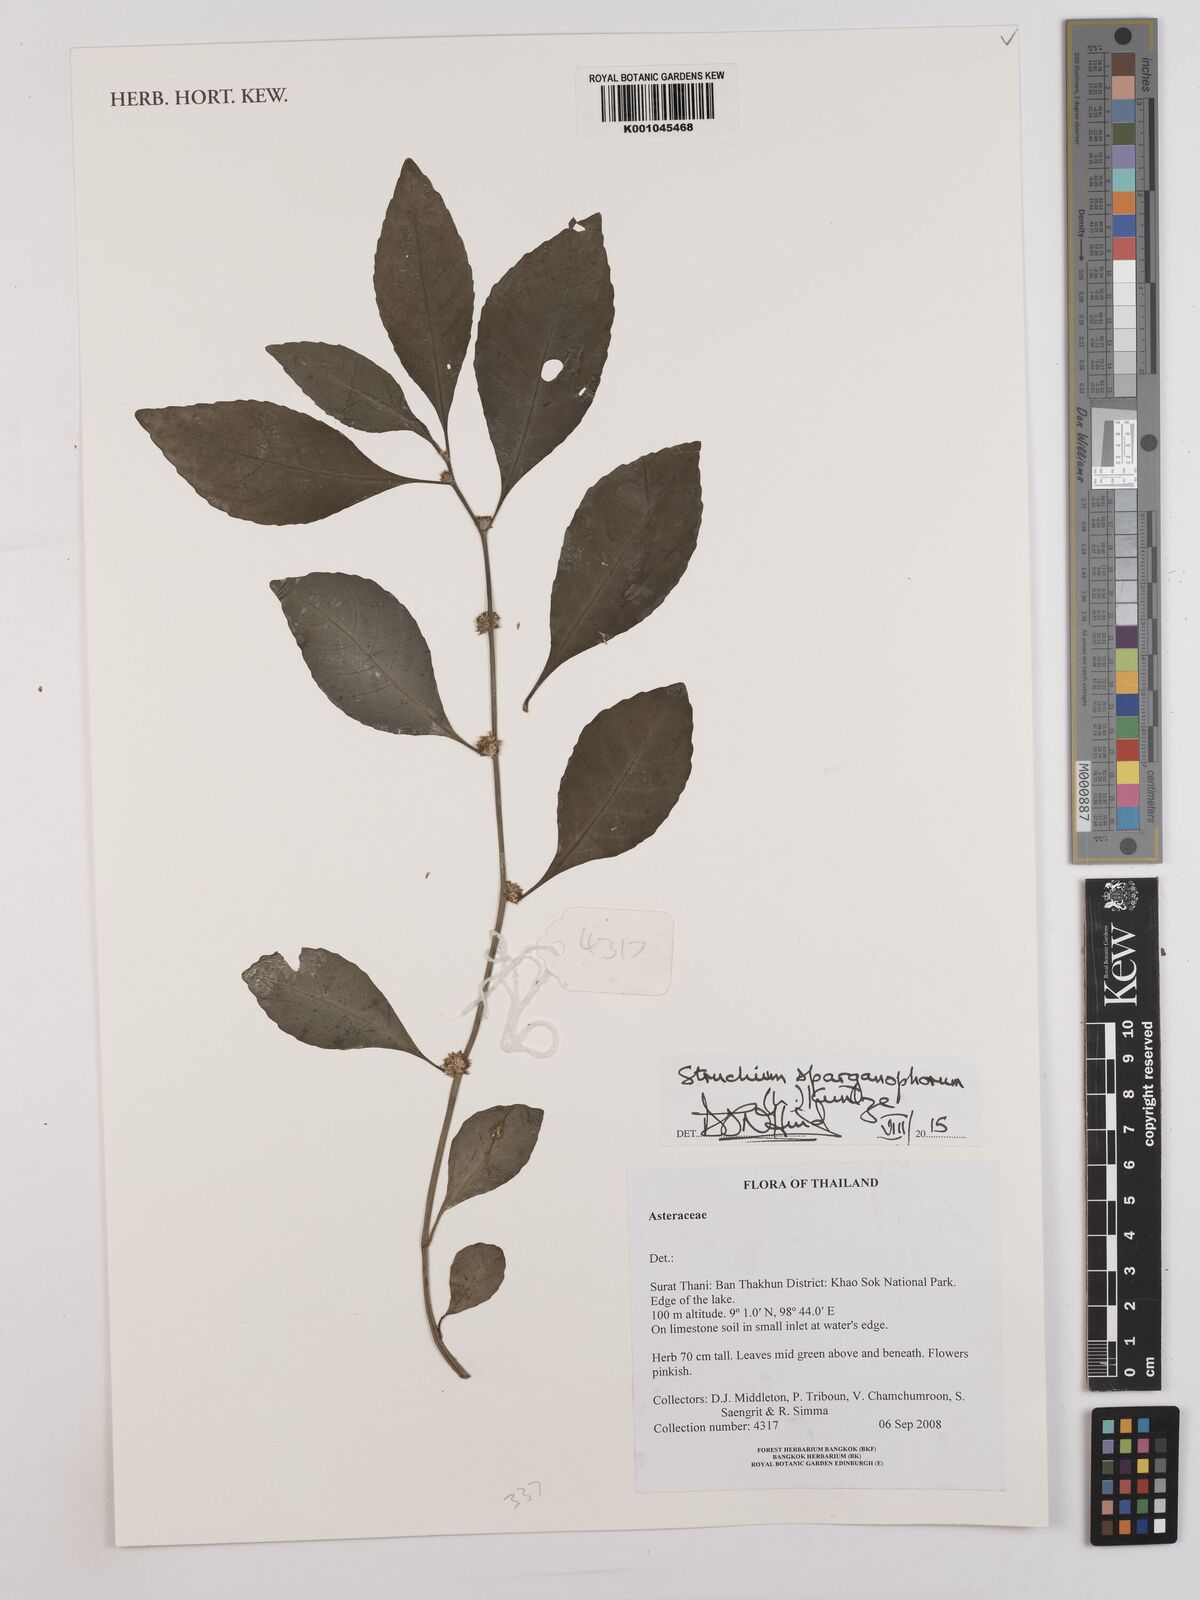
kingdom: Plantae
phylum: Tracheophyta
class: Magnoliopsida
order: Asterales
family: Asteraceae
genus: Struchium
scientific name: Struchium sparganophorum
